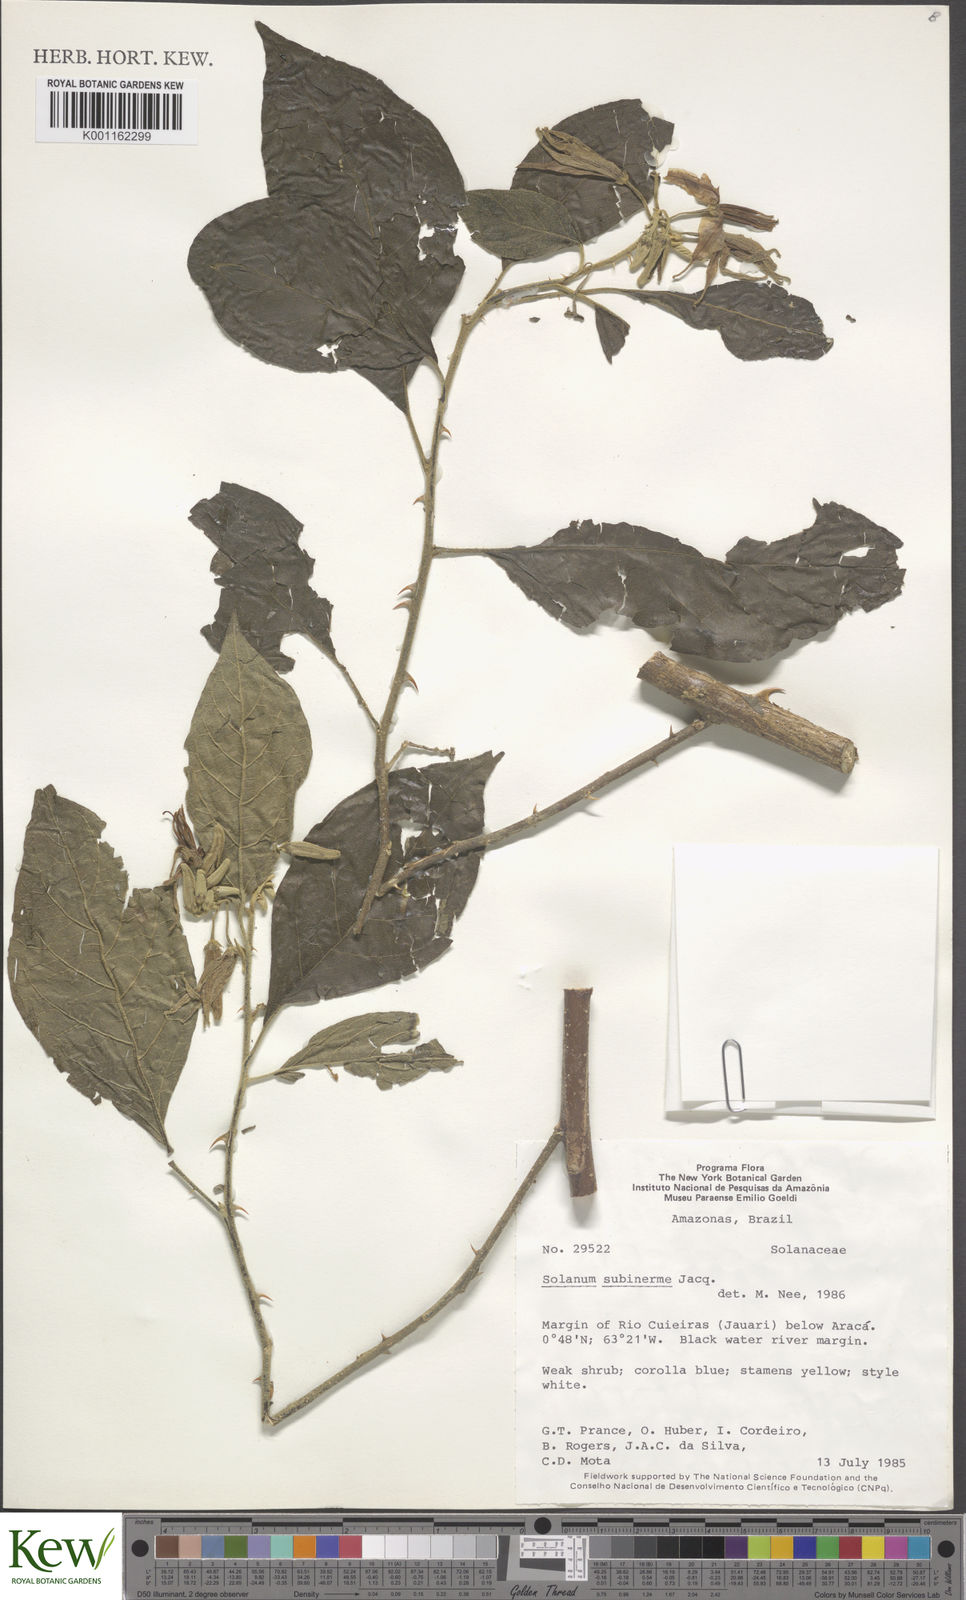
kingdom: Plantae
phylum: Tracheophyta
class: Magnoliopsida
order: Solanales
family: Solanaceae
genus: Solanum
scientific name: Solanum subinerme
